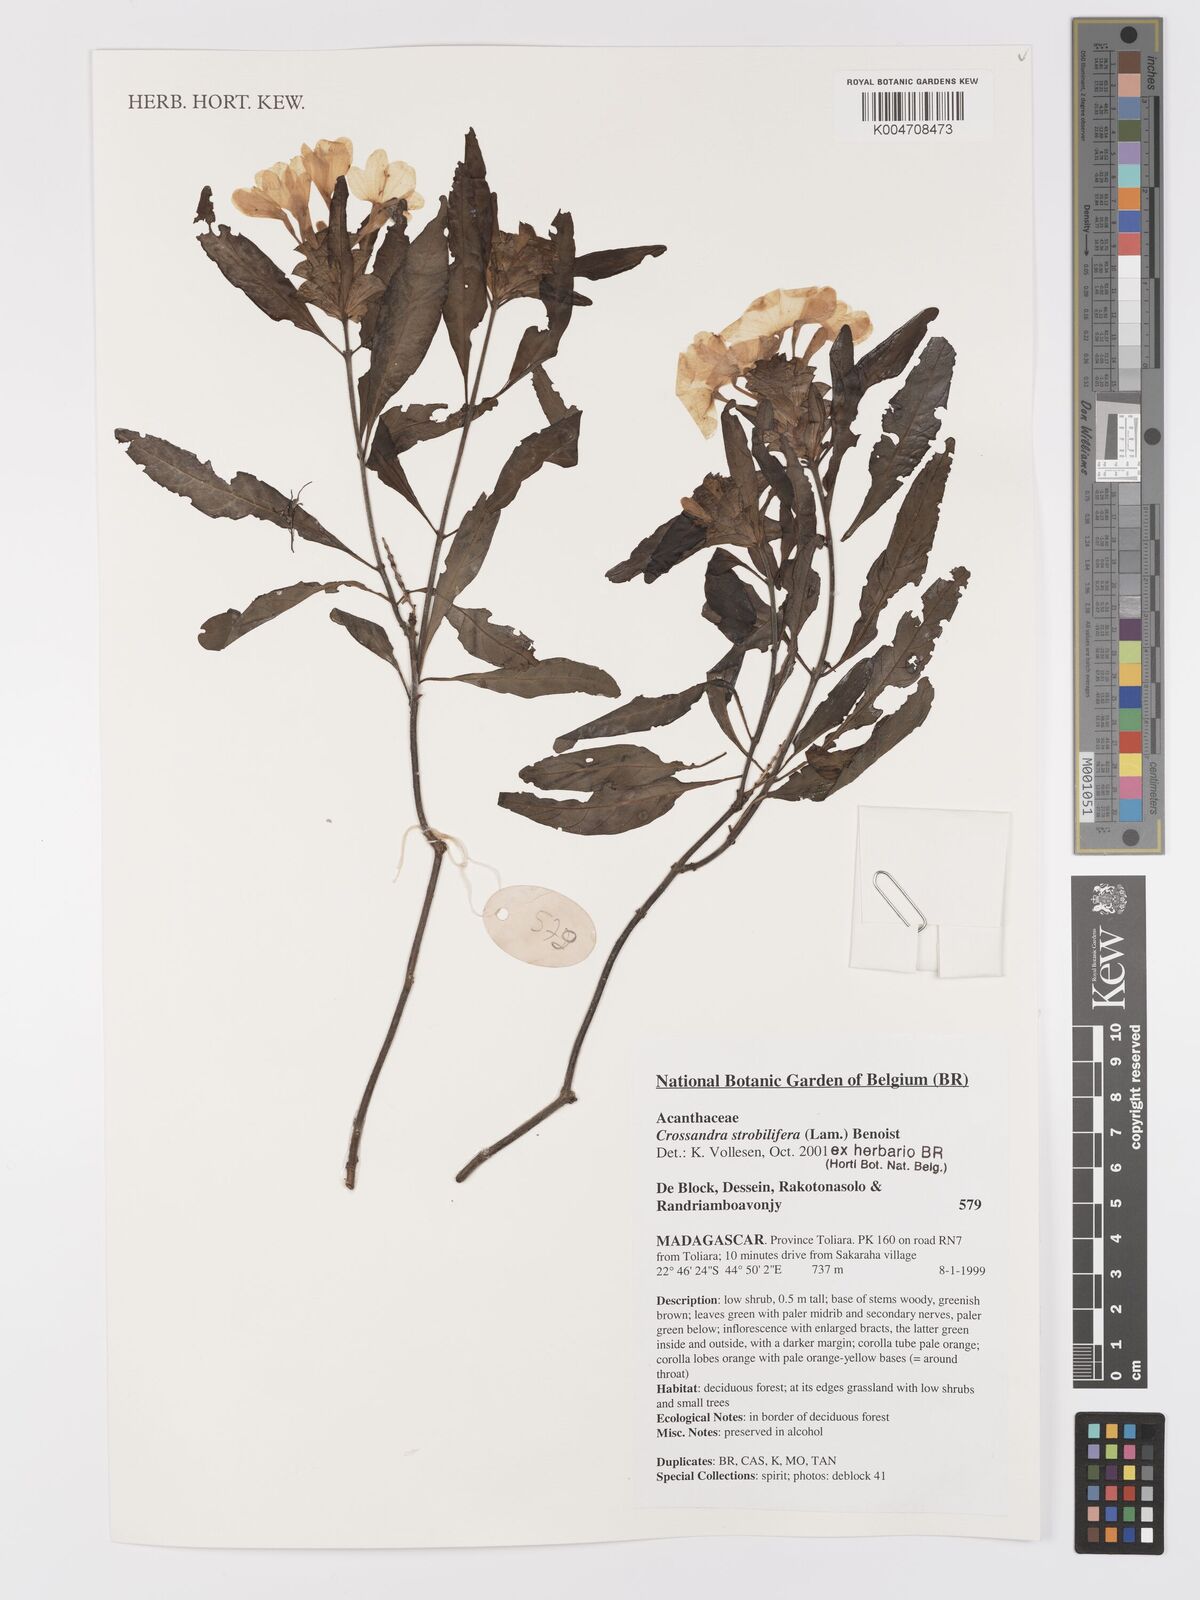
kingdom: Plantae
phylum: Tracheophyta
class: Magnoliopsida
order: Lamiales
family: Acanthaceae
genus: Crossandra
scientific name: Crossandra strobilifera
